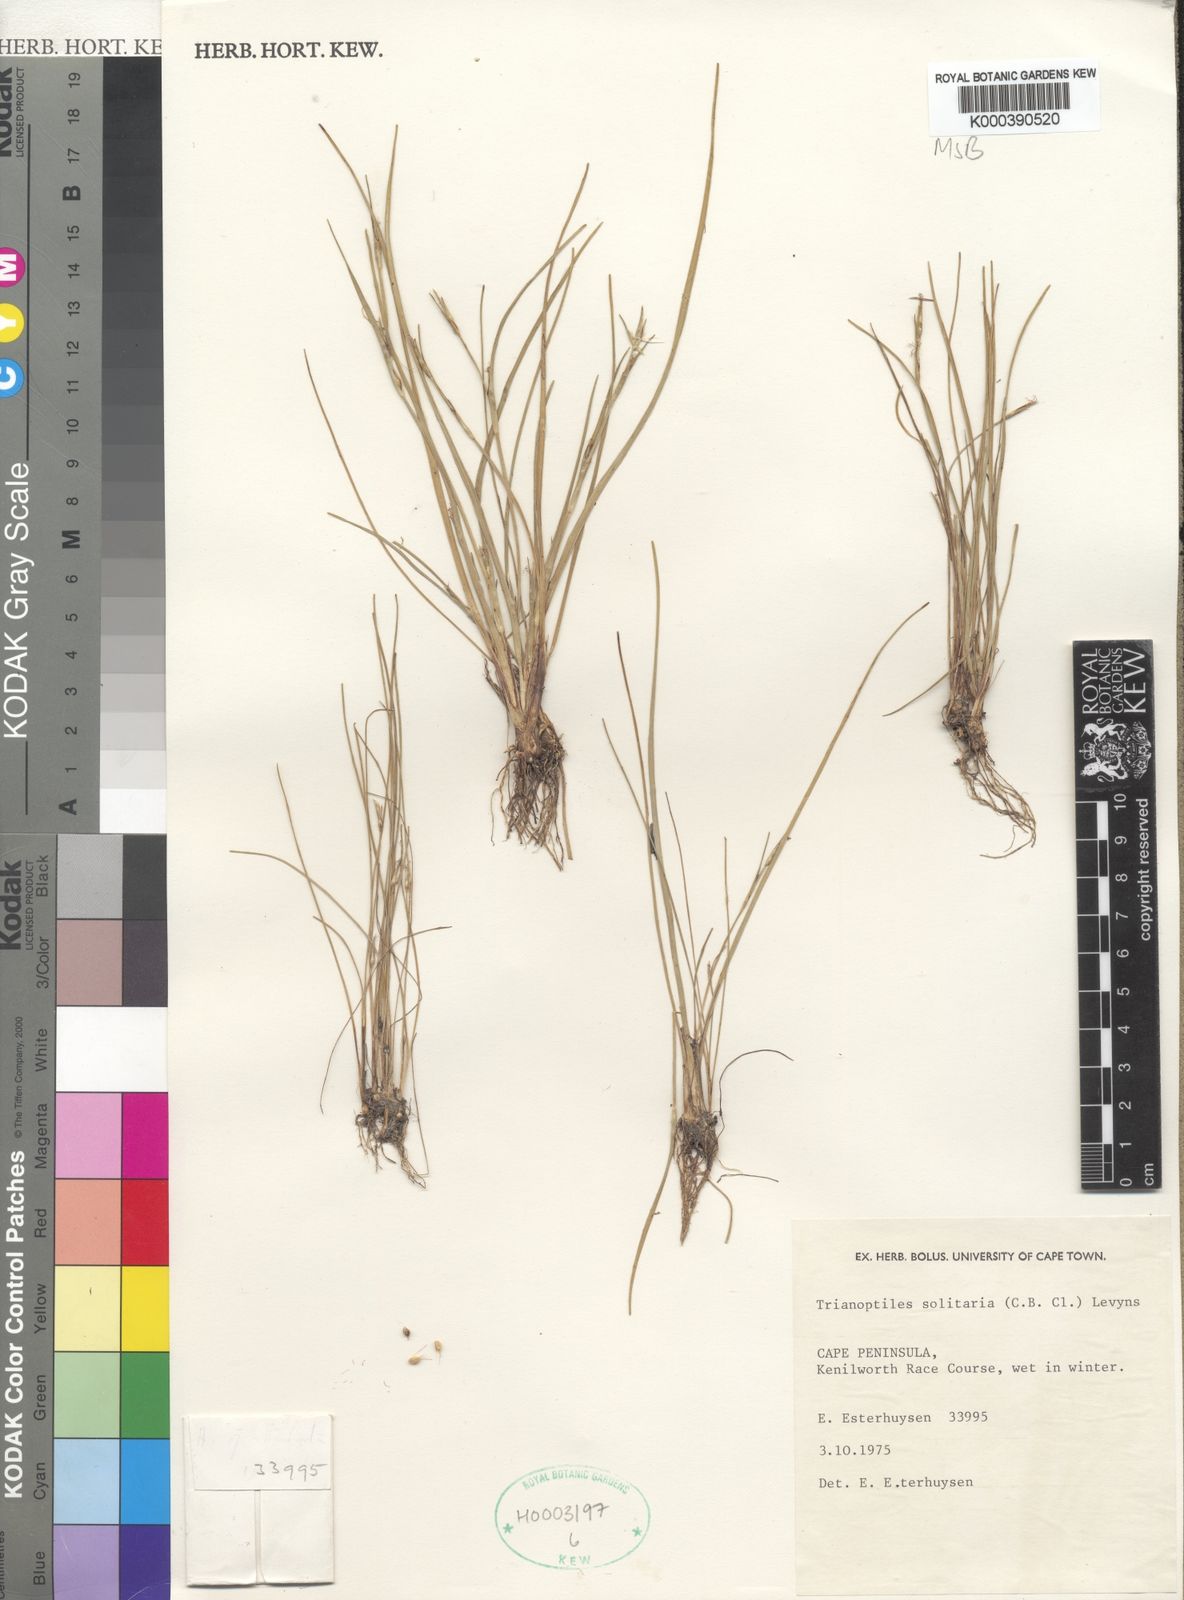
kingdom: Plantae
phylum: Tracheophyta
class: Liliopsida
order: Poales
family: Cyperaceae
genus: Trianoptiles
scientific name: Trianoptiles solitaria
